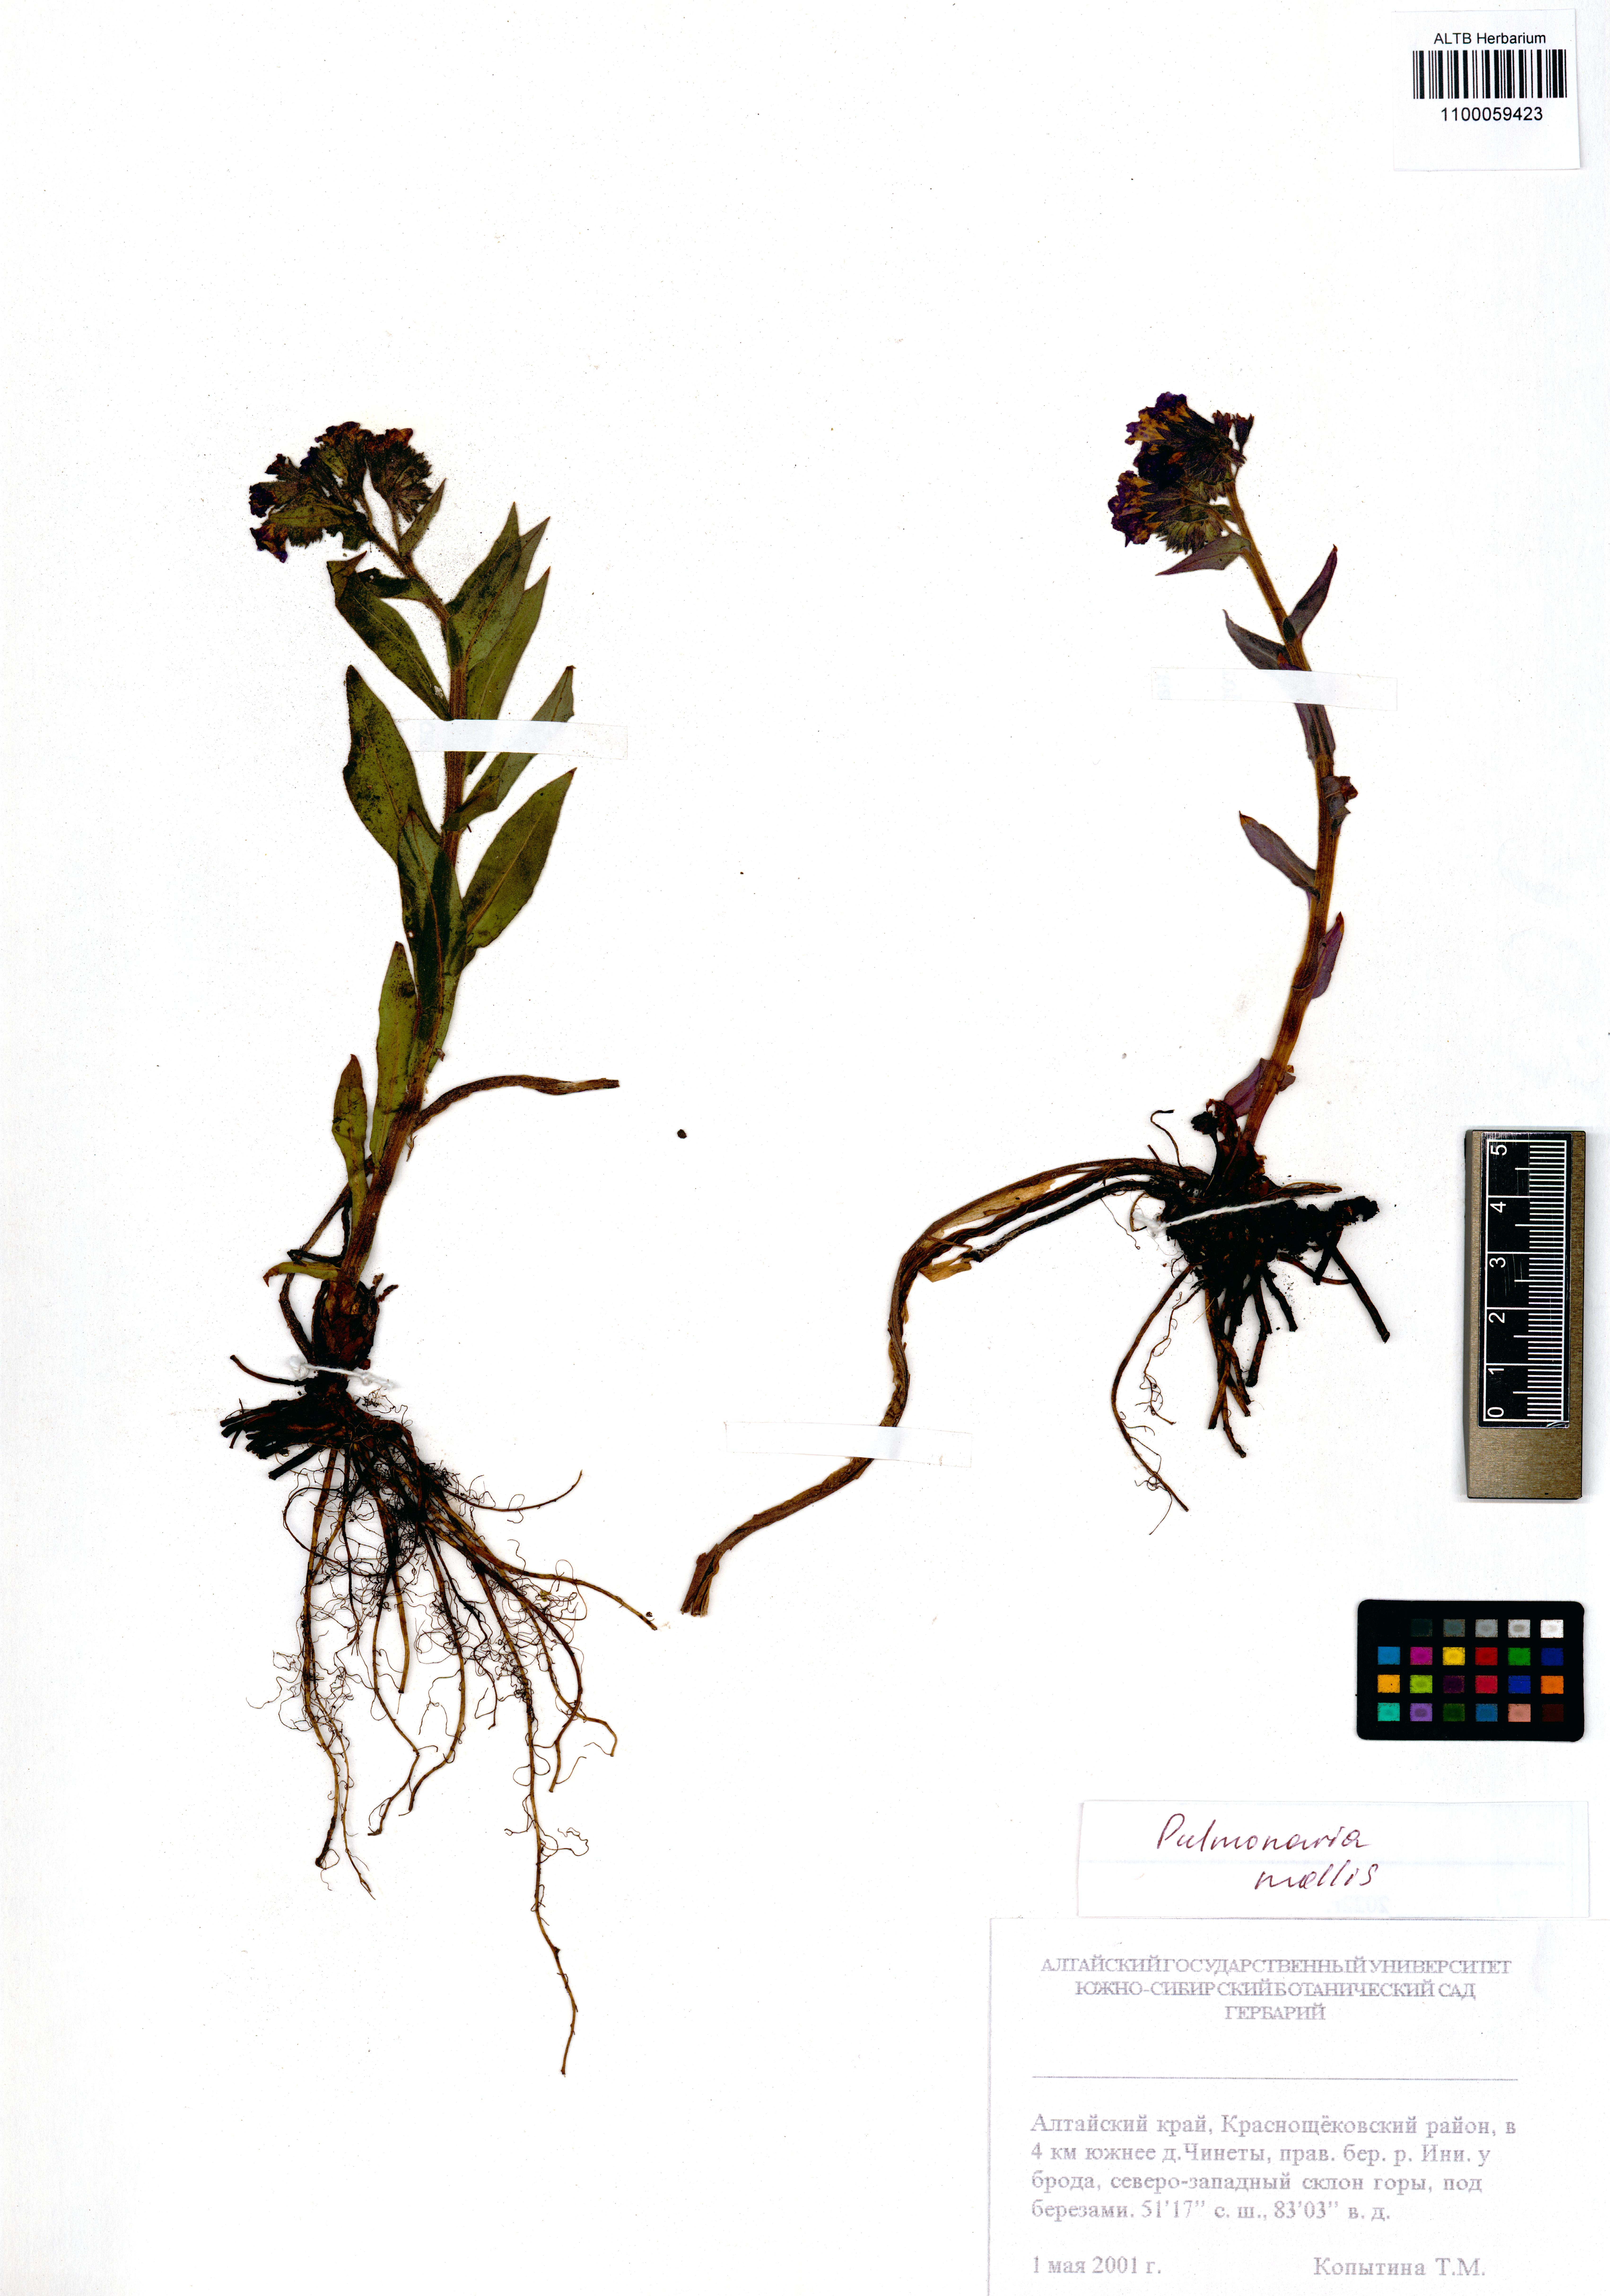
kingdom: Plantae
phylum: Tracheophyta
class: Magnoliopsida
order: Boraginales
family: Boraginaceae
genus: Pulmonaria
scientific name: Pulmonaria mollis
